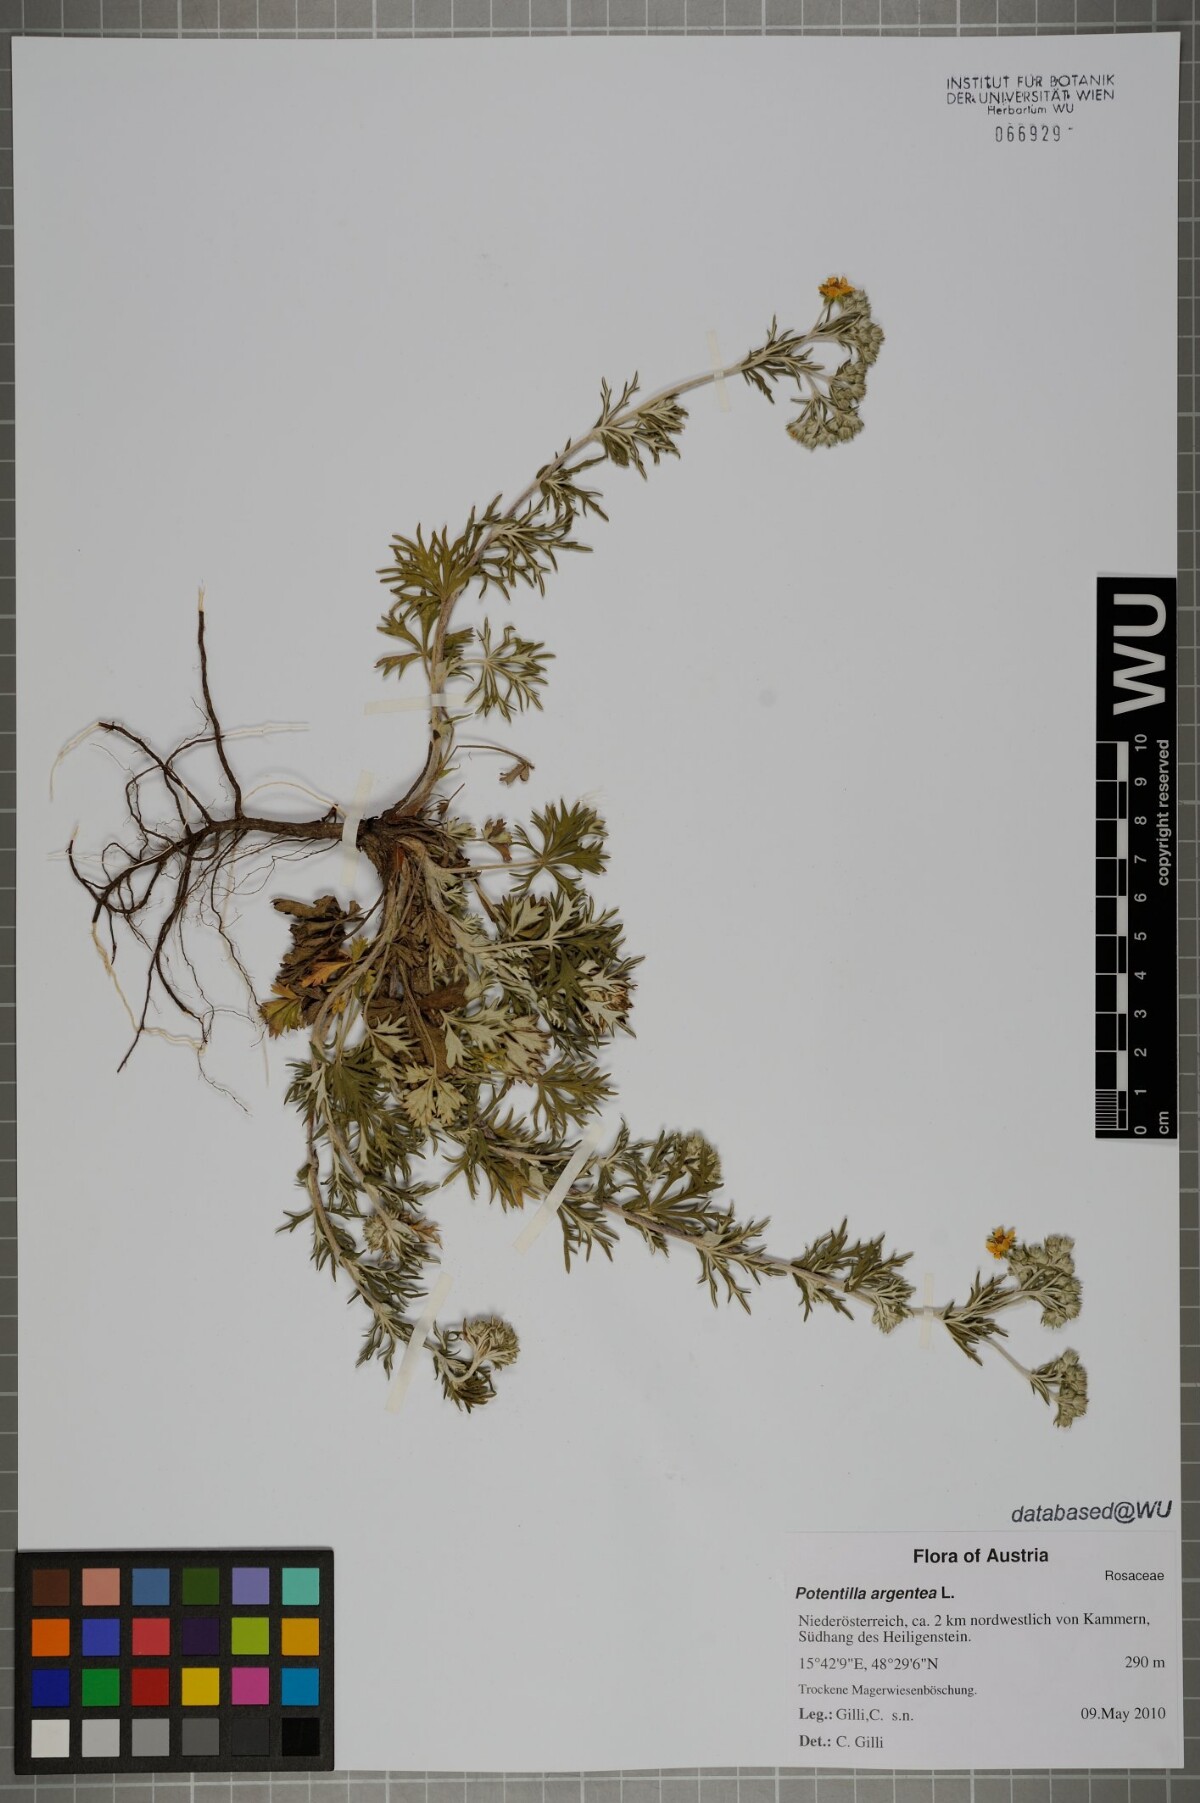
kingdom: Plantae
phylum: Tracheophyta
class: Magnoliopsida
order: Rosales
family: Rosaceae
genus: Potentilla
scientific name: Potentilla argentea
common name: Hoary cinquefoil
